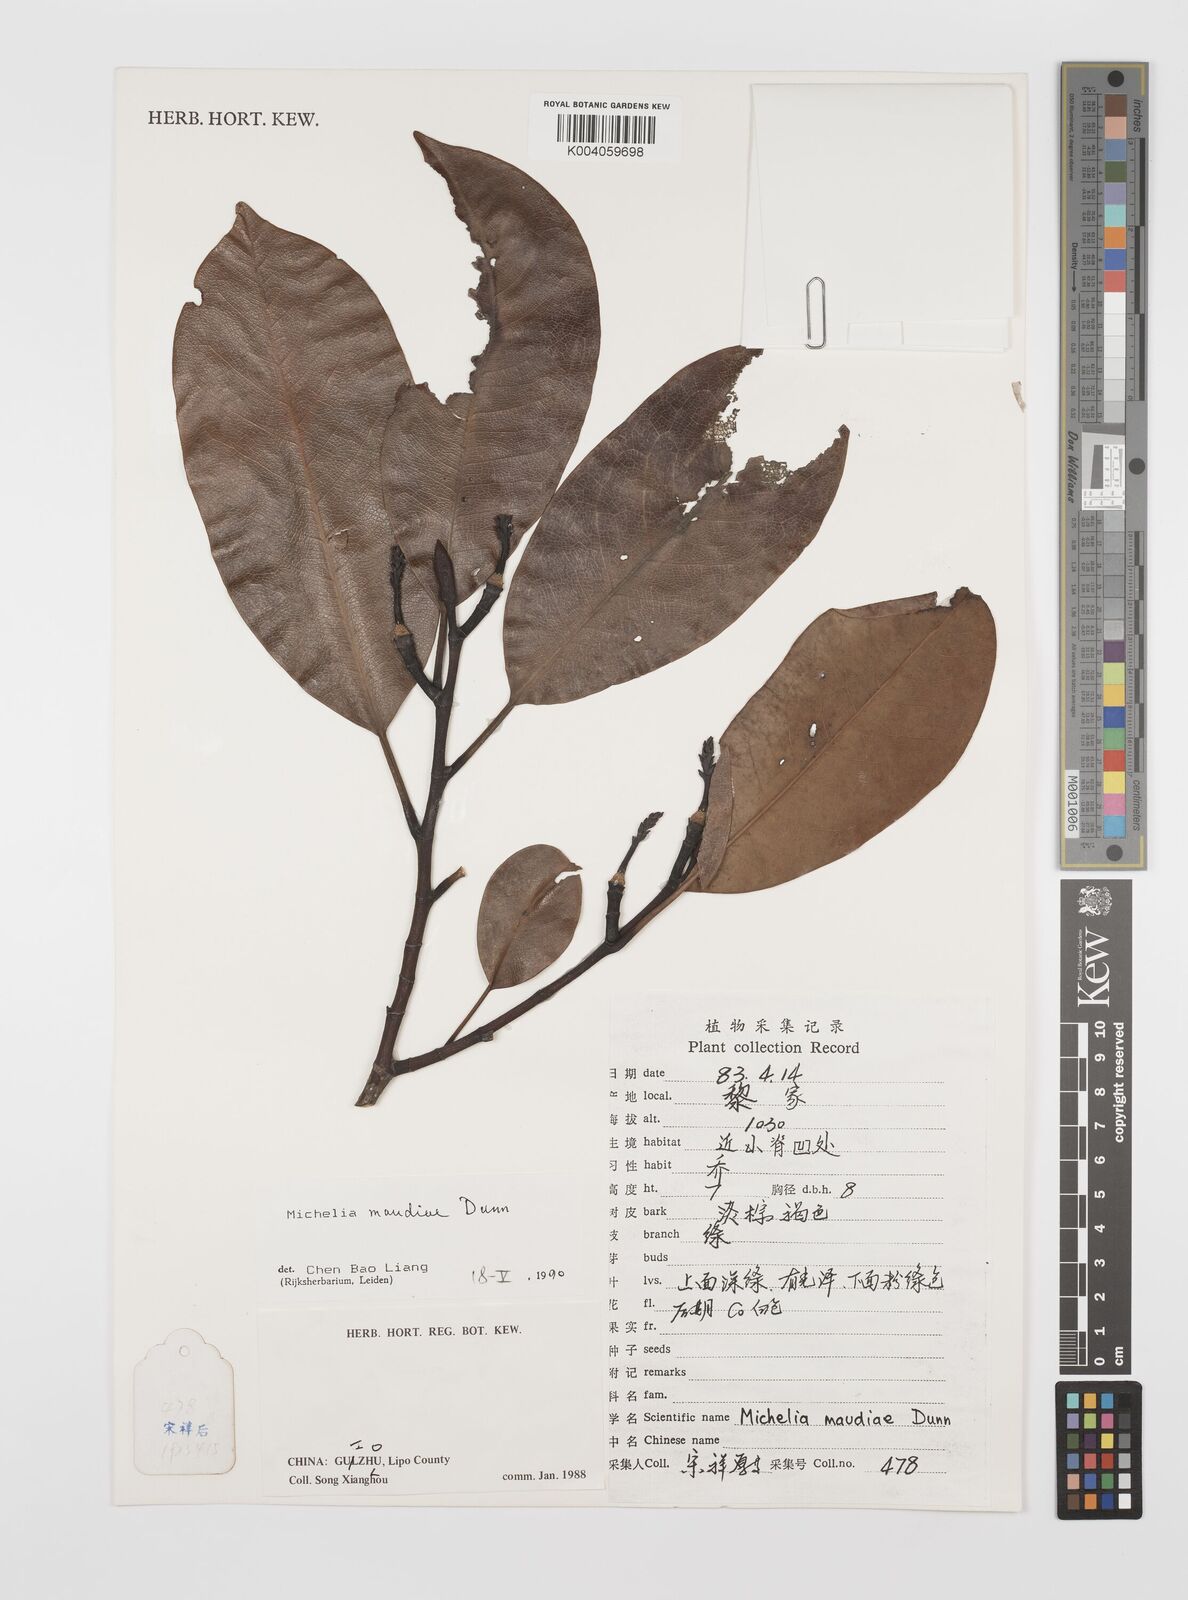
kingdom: Plantae
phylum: Tracheophyta
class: Magnoliopsida
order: Magnoliales
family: Magnoliaceae
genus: Magnolia
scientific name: Magnolia maudiae
